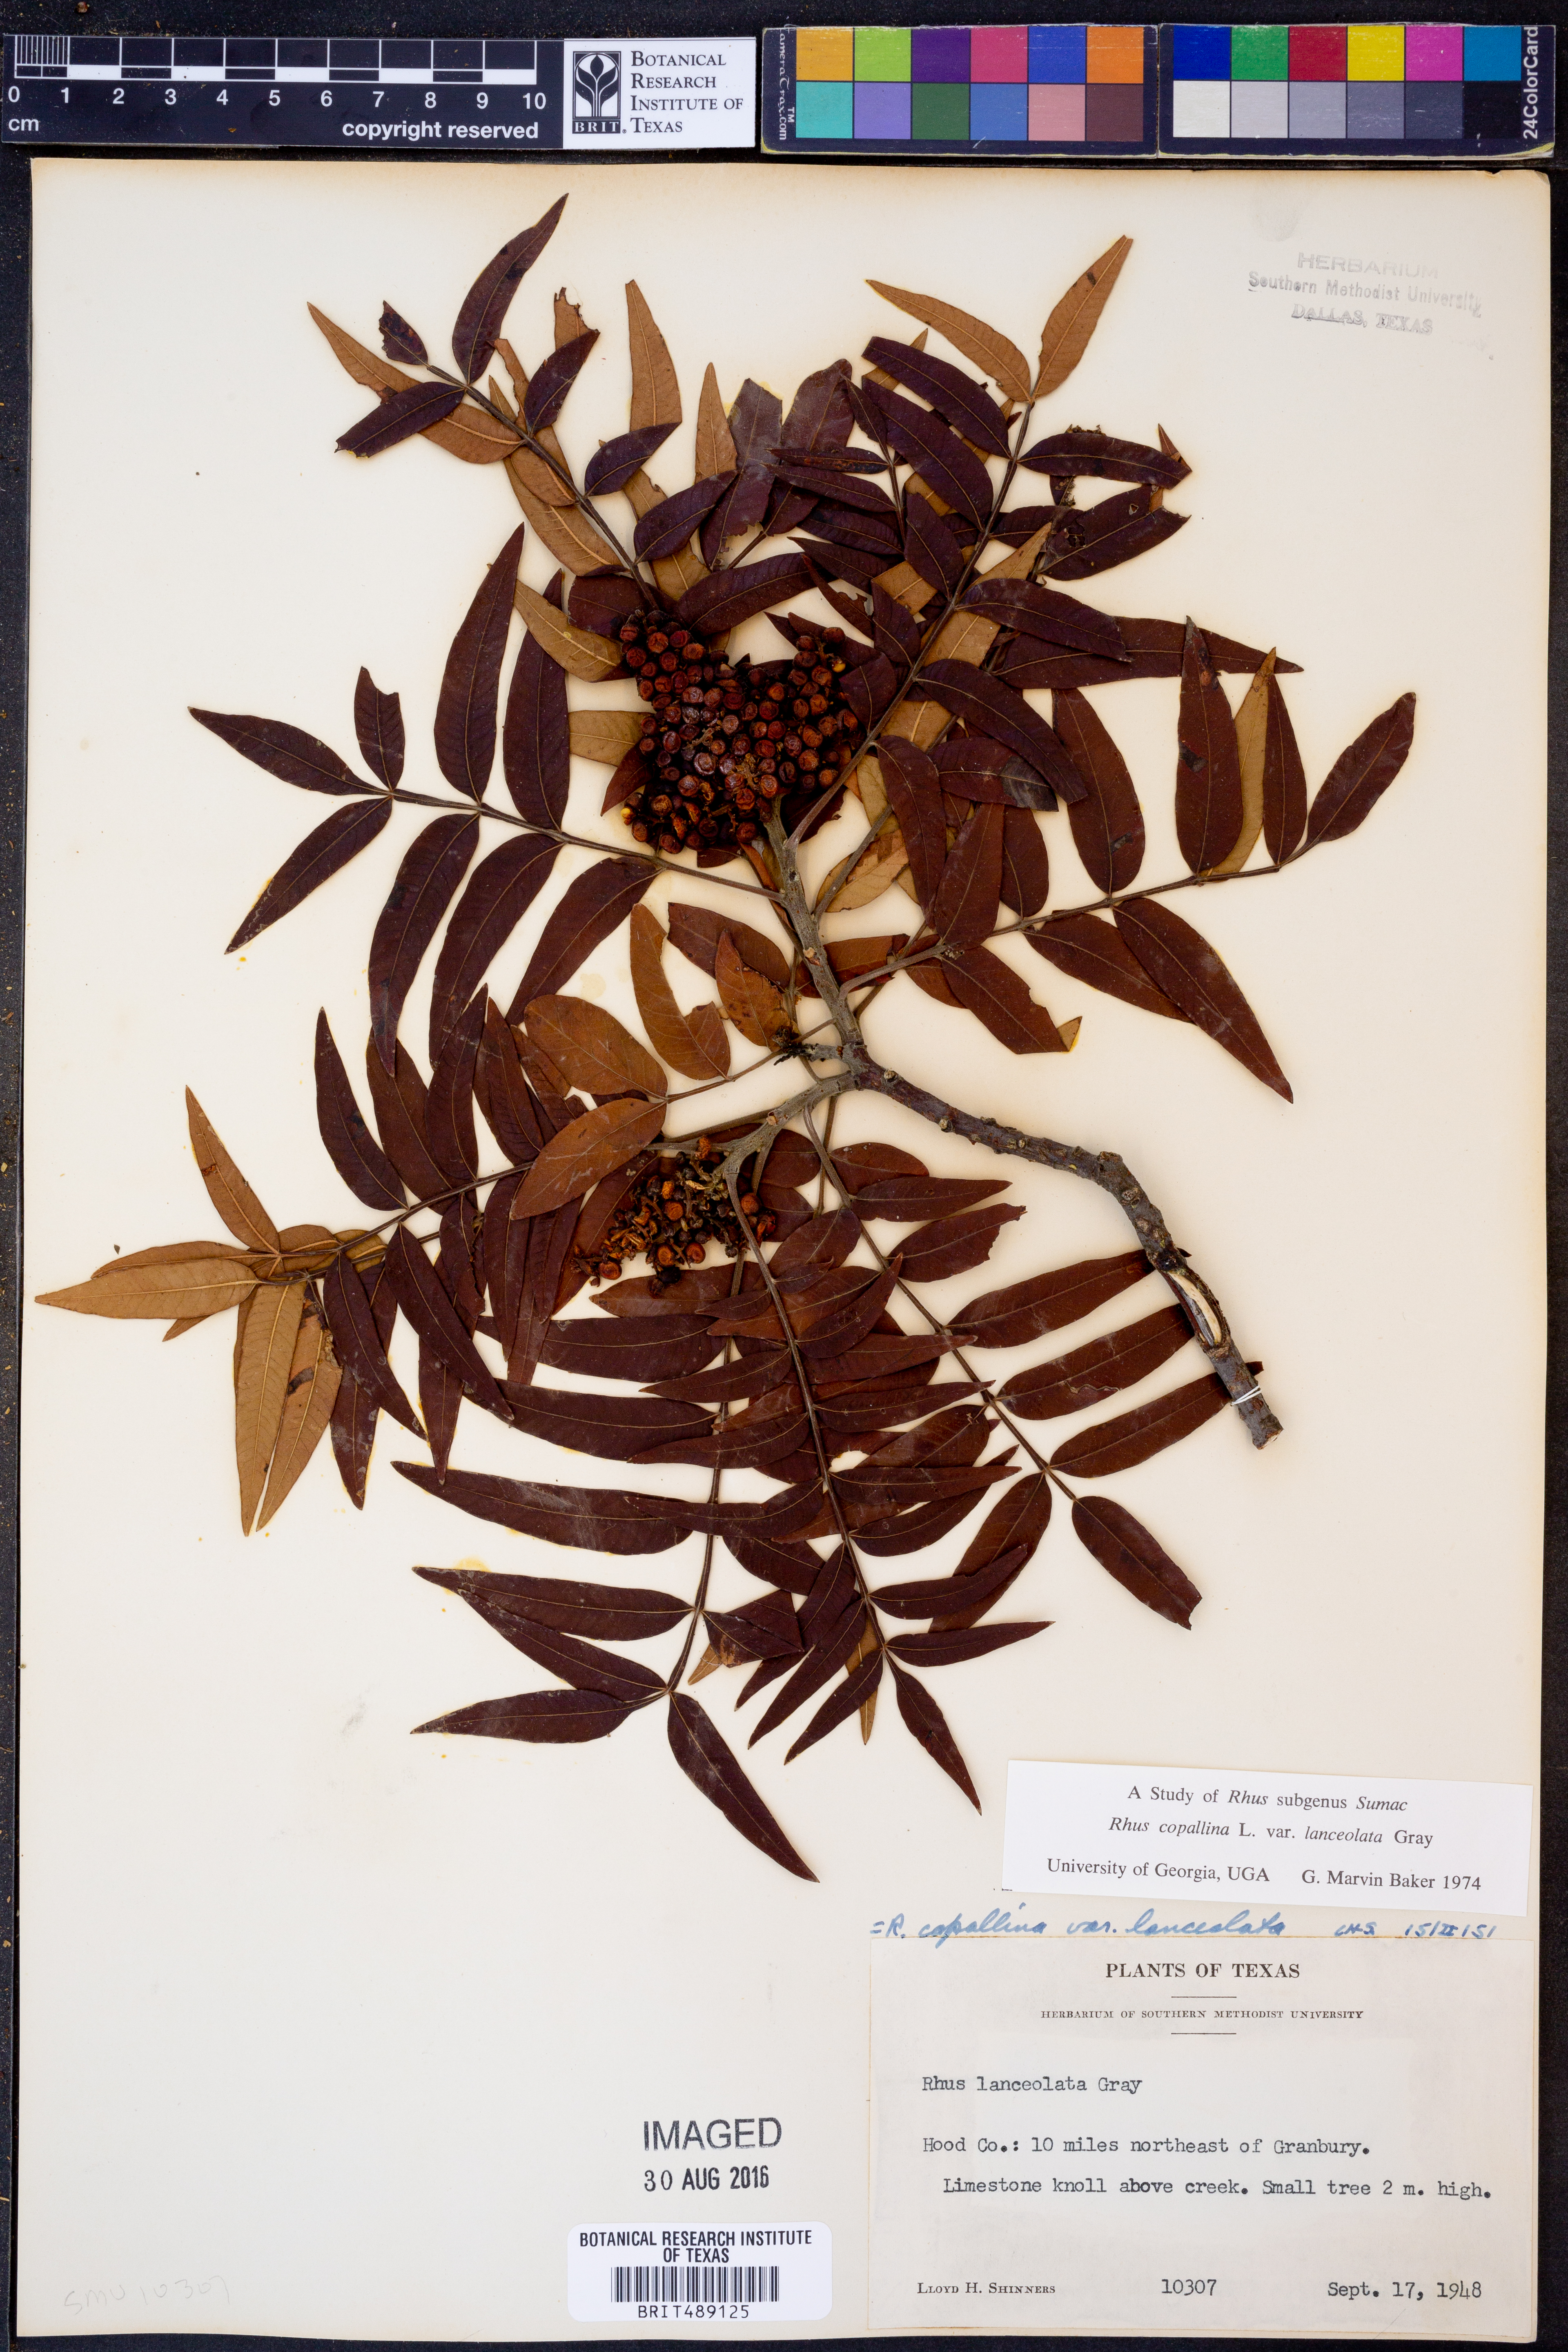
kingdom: Plantae
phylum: Tracheophyta
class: Magnoliopsida
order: Sapindales
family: Anacardiaceae
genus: Rhus
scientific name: Rhus lanceolata
